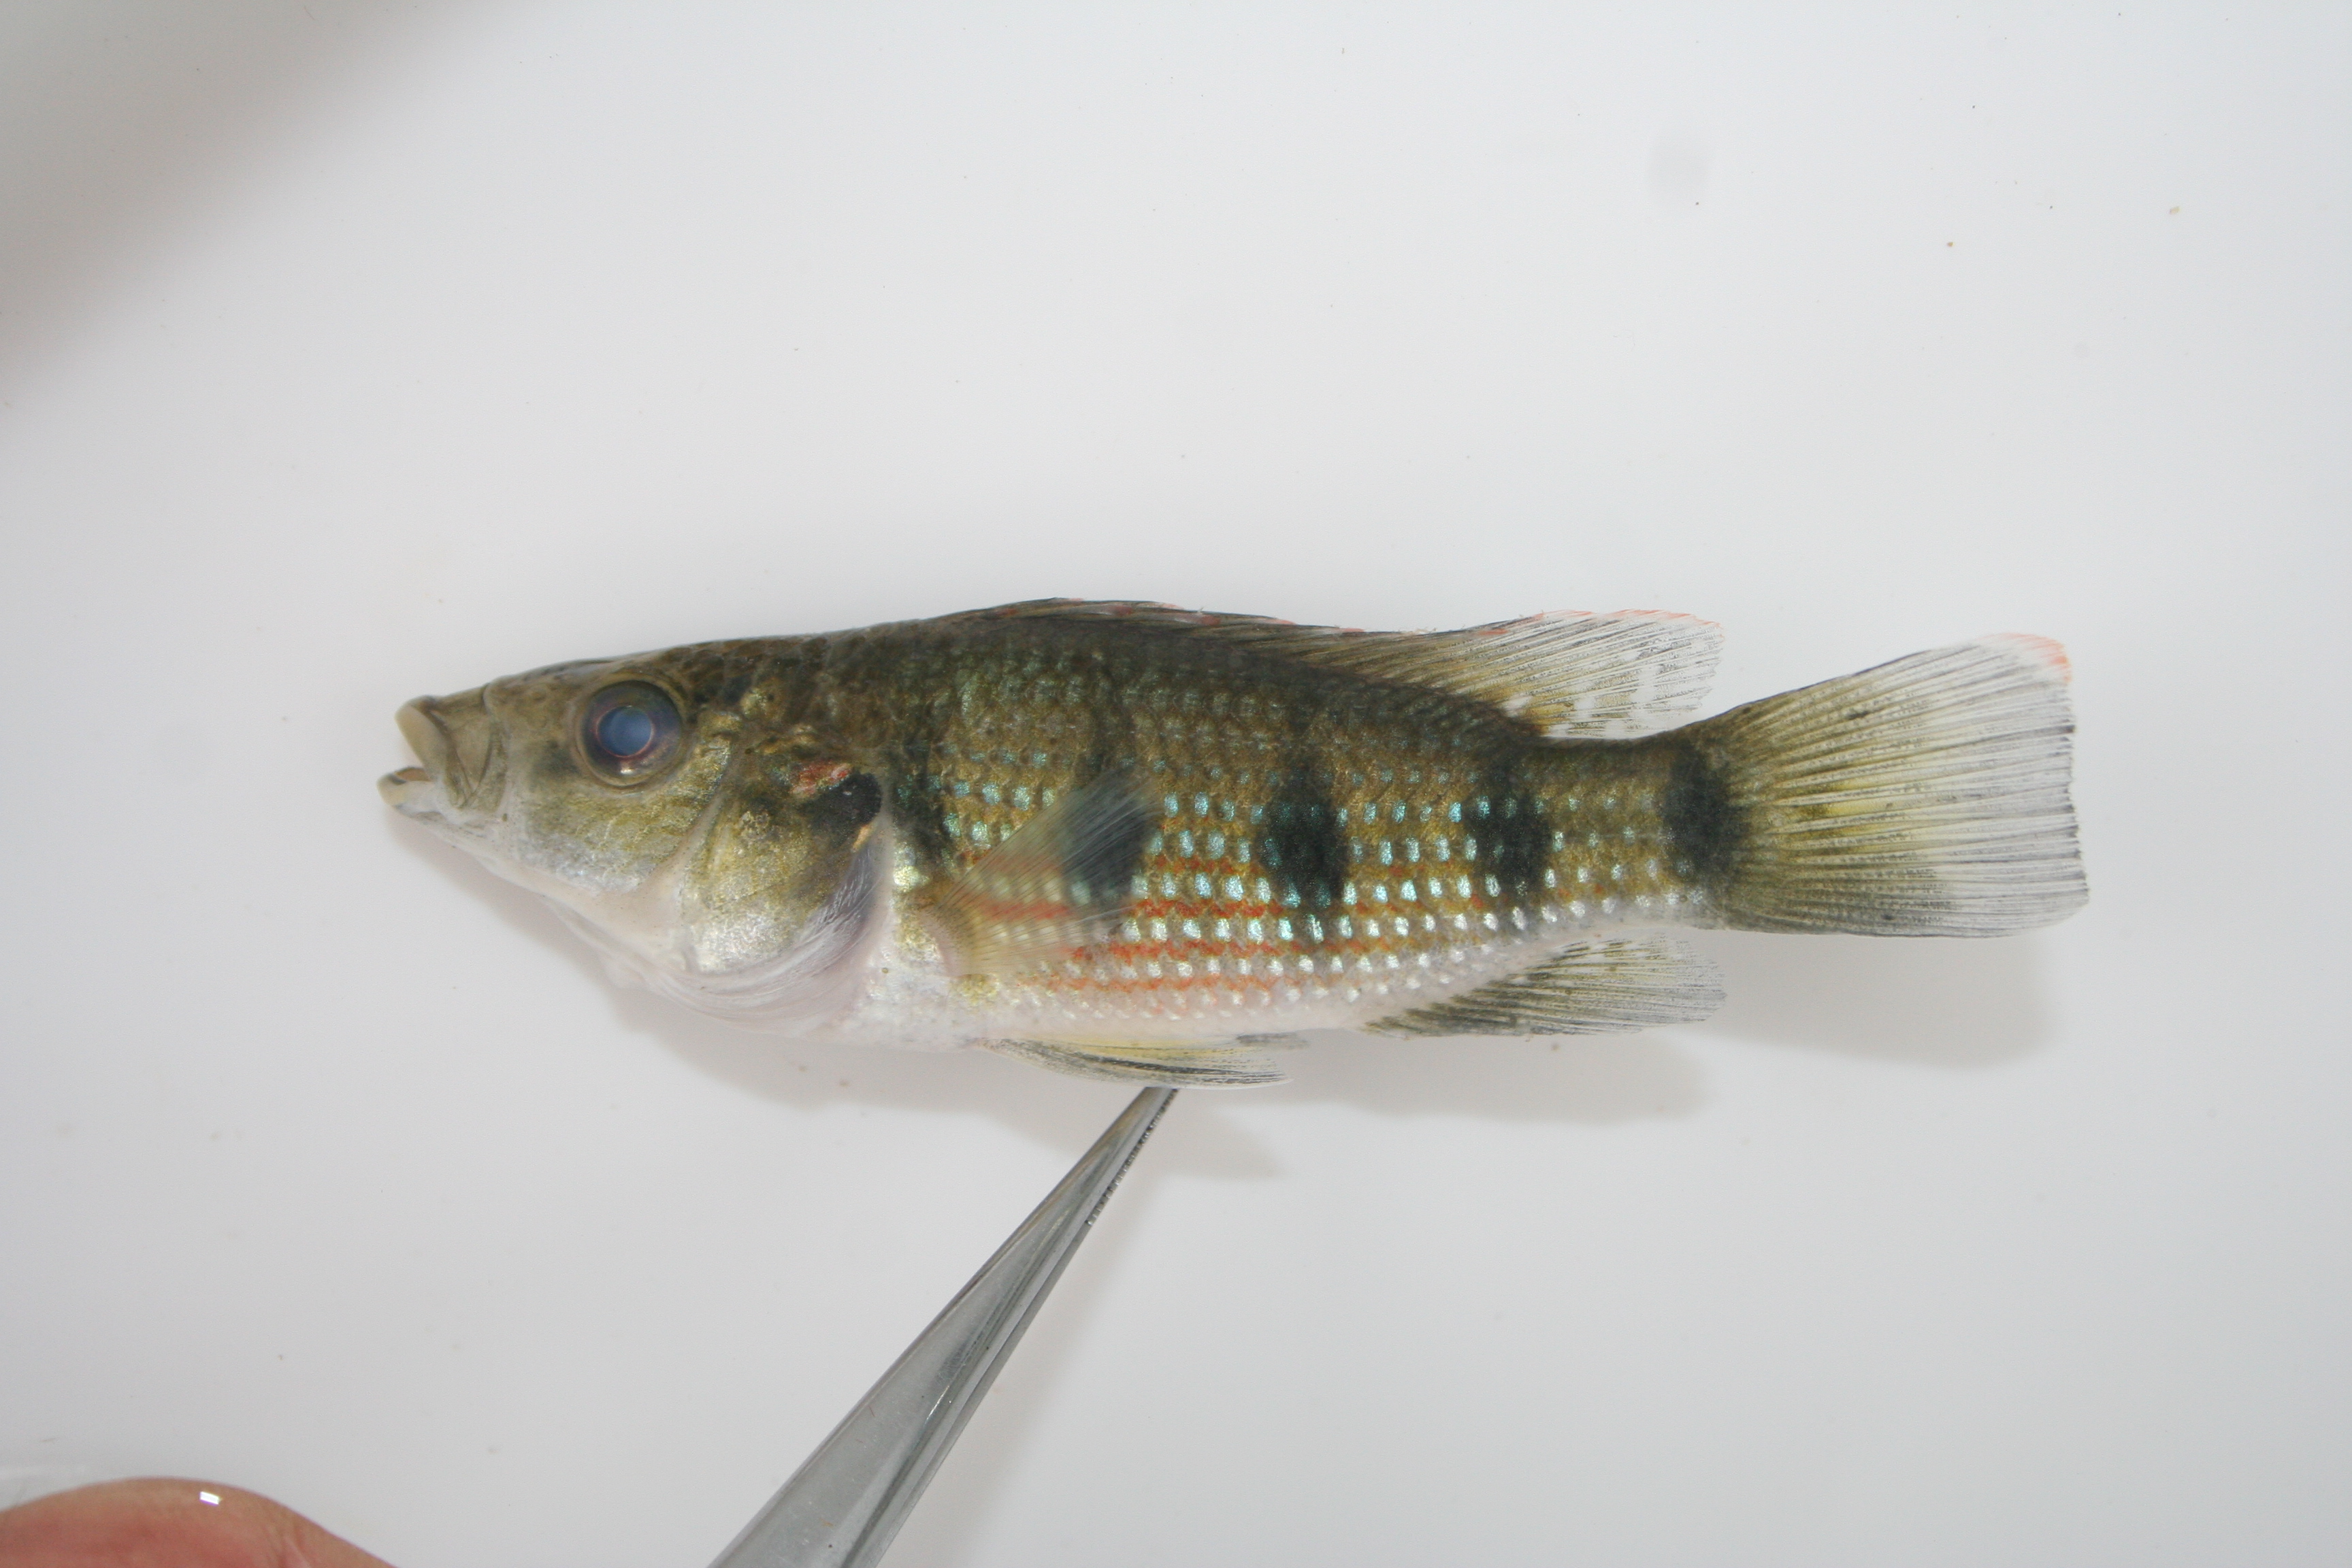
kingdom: Animalia
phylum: Chordata
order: Perciformes
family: Cichlidae
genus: Hemichromis
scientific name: Hemichromis angolensis
